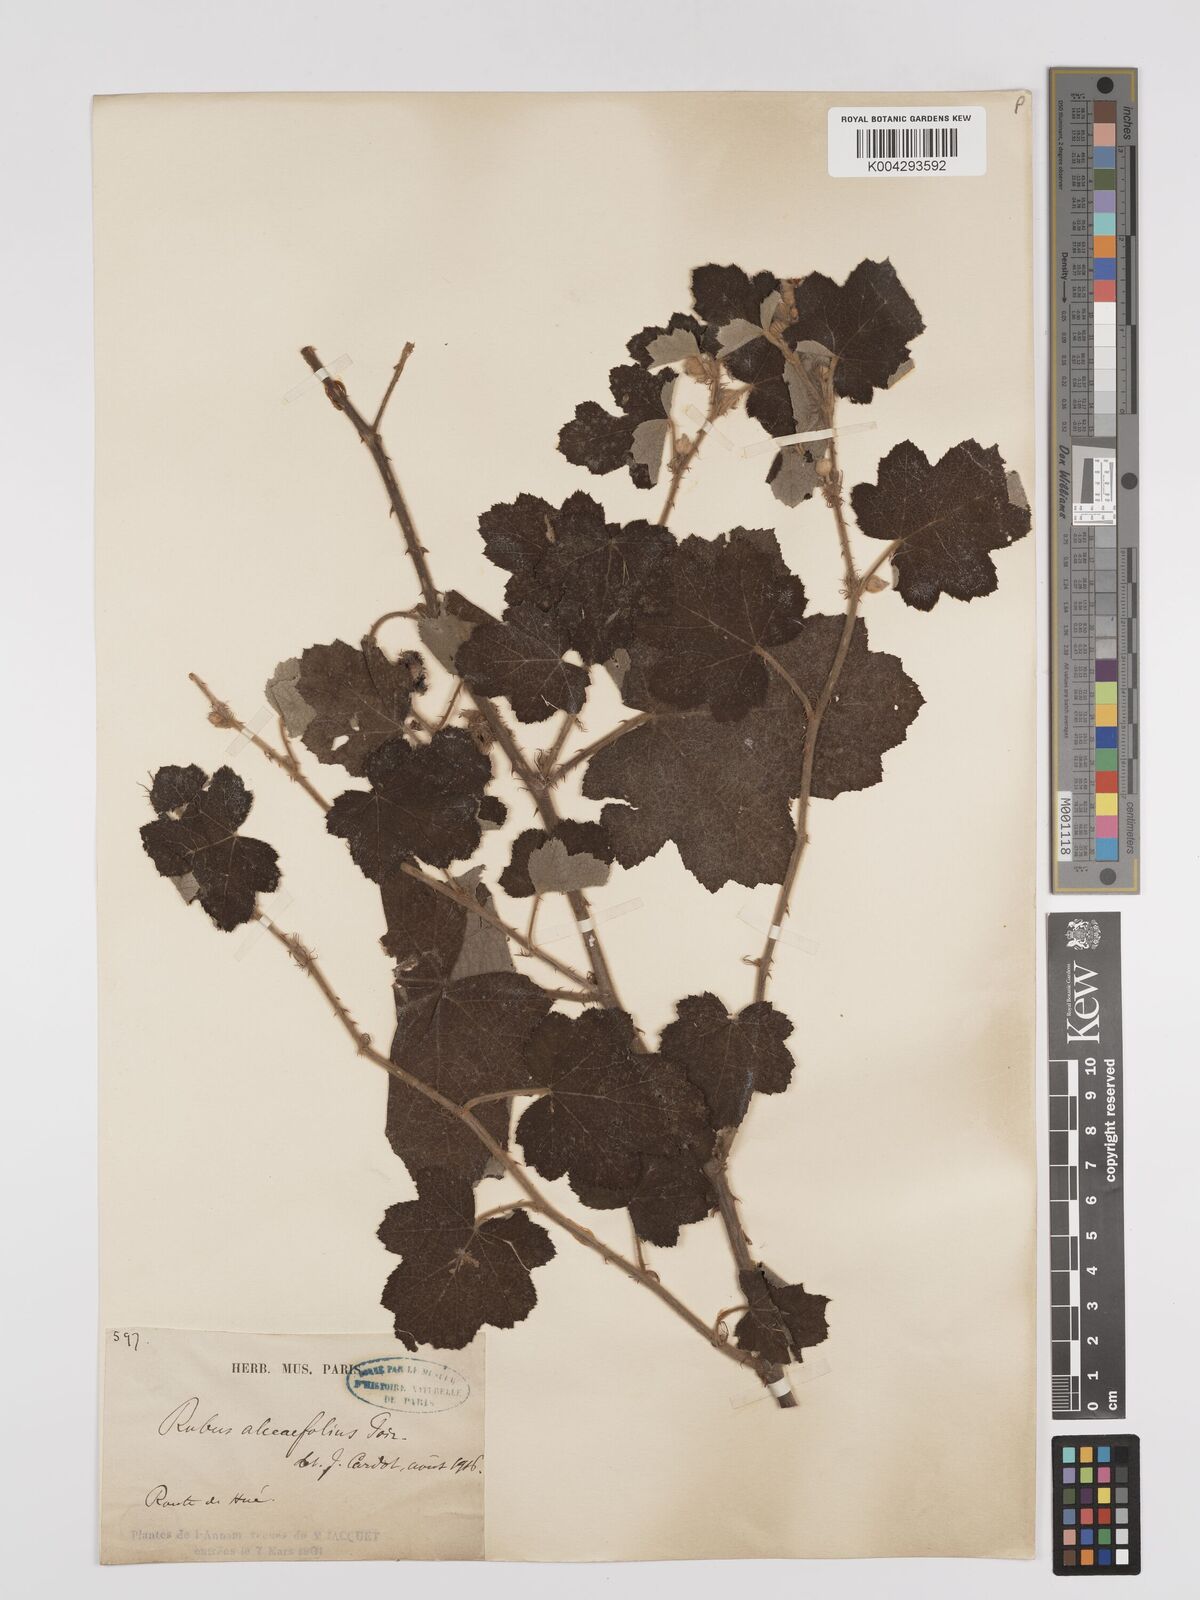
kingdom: Plantae
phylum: Tracheophyta
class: Magnoliopsida
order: Rosales
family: Rosaceae
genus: Rubus
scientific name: Rubus alceifolius
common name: Giant bramble
